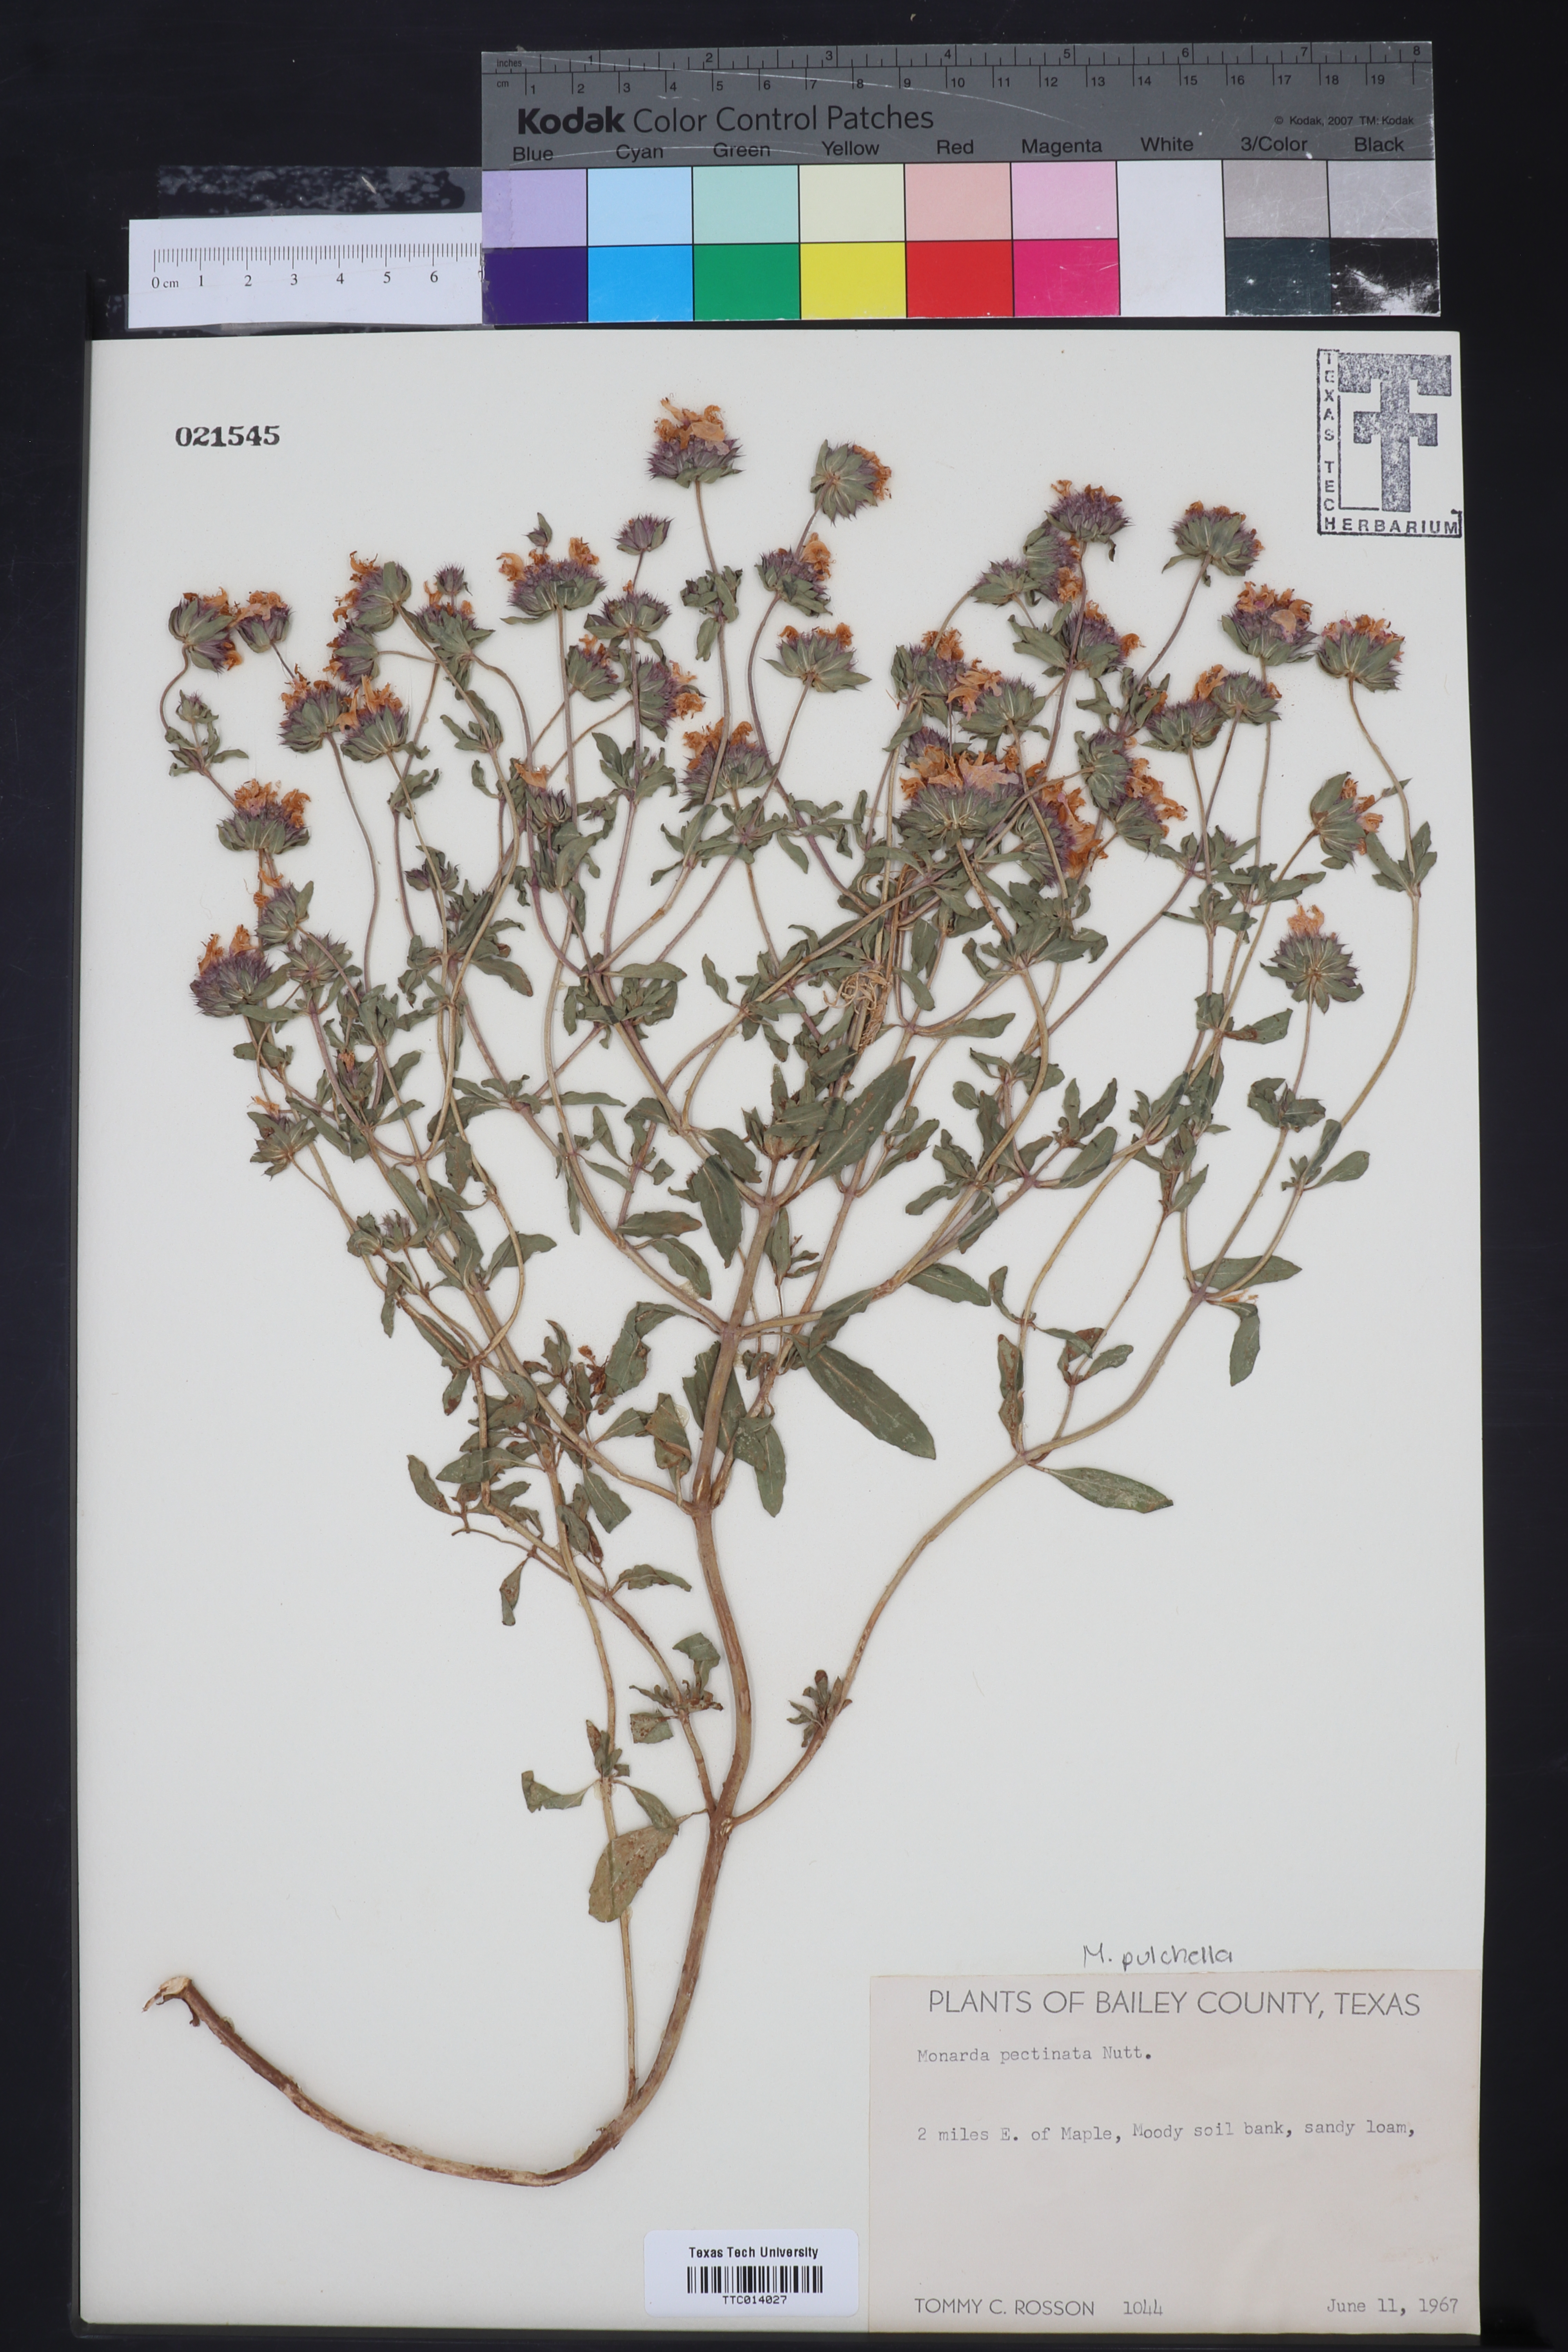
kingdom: Plantae
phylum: Tracheophyta
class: Magnoliopsida
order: Lamiales
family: Lamiaceae
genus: Monarda
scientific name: Monarda pectinata
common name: Plains beebalm
